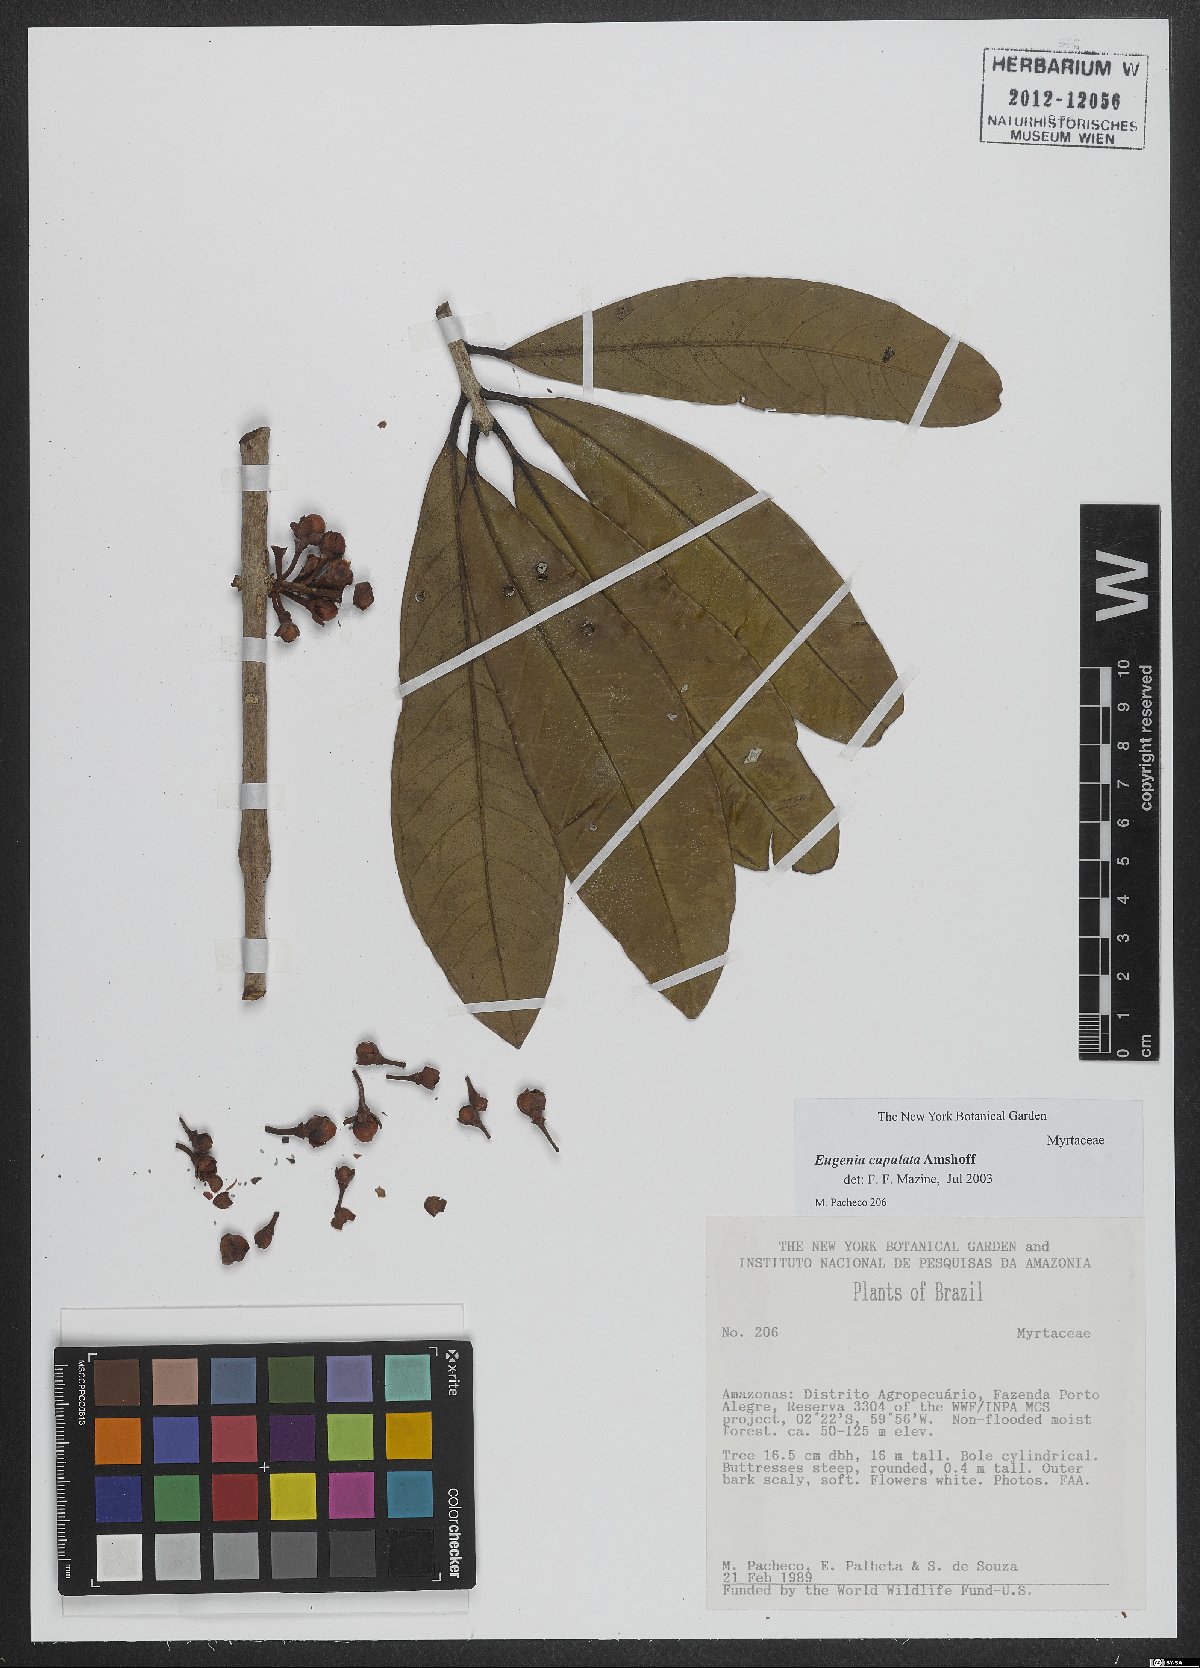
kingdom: Plantae
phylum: Tracheophyta
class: Magnoliopsida
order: Myrtales
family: Myrtaceae
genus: Eugenia
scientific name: Eugenia cupulata
